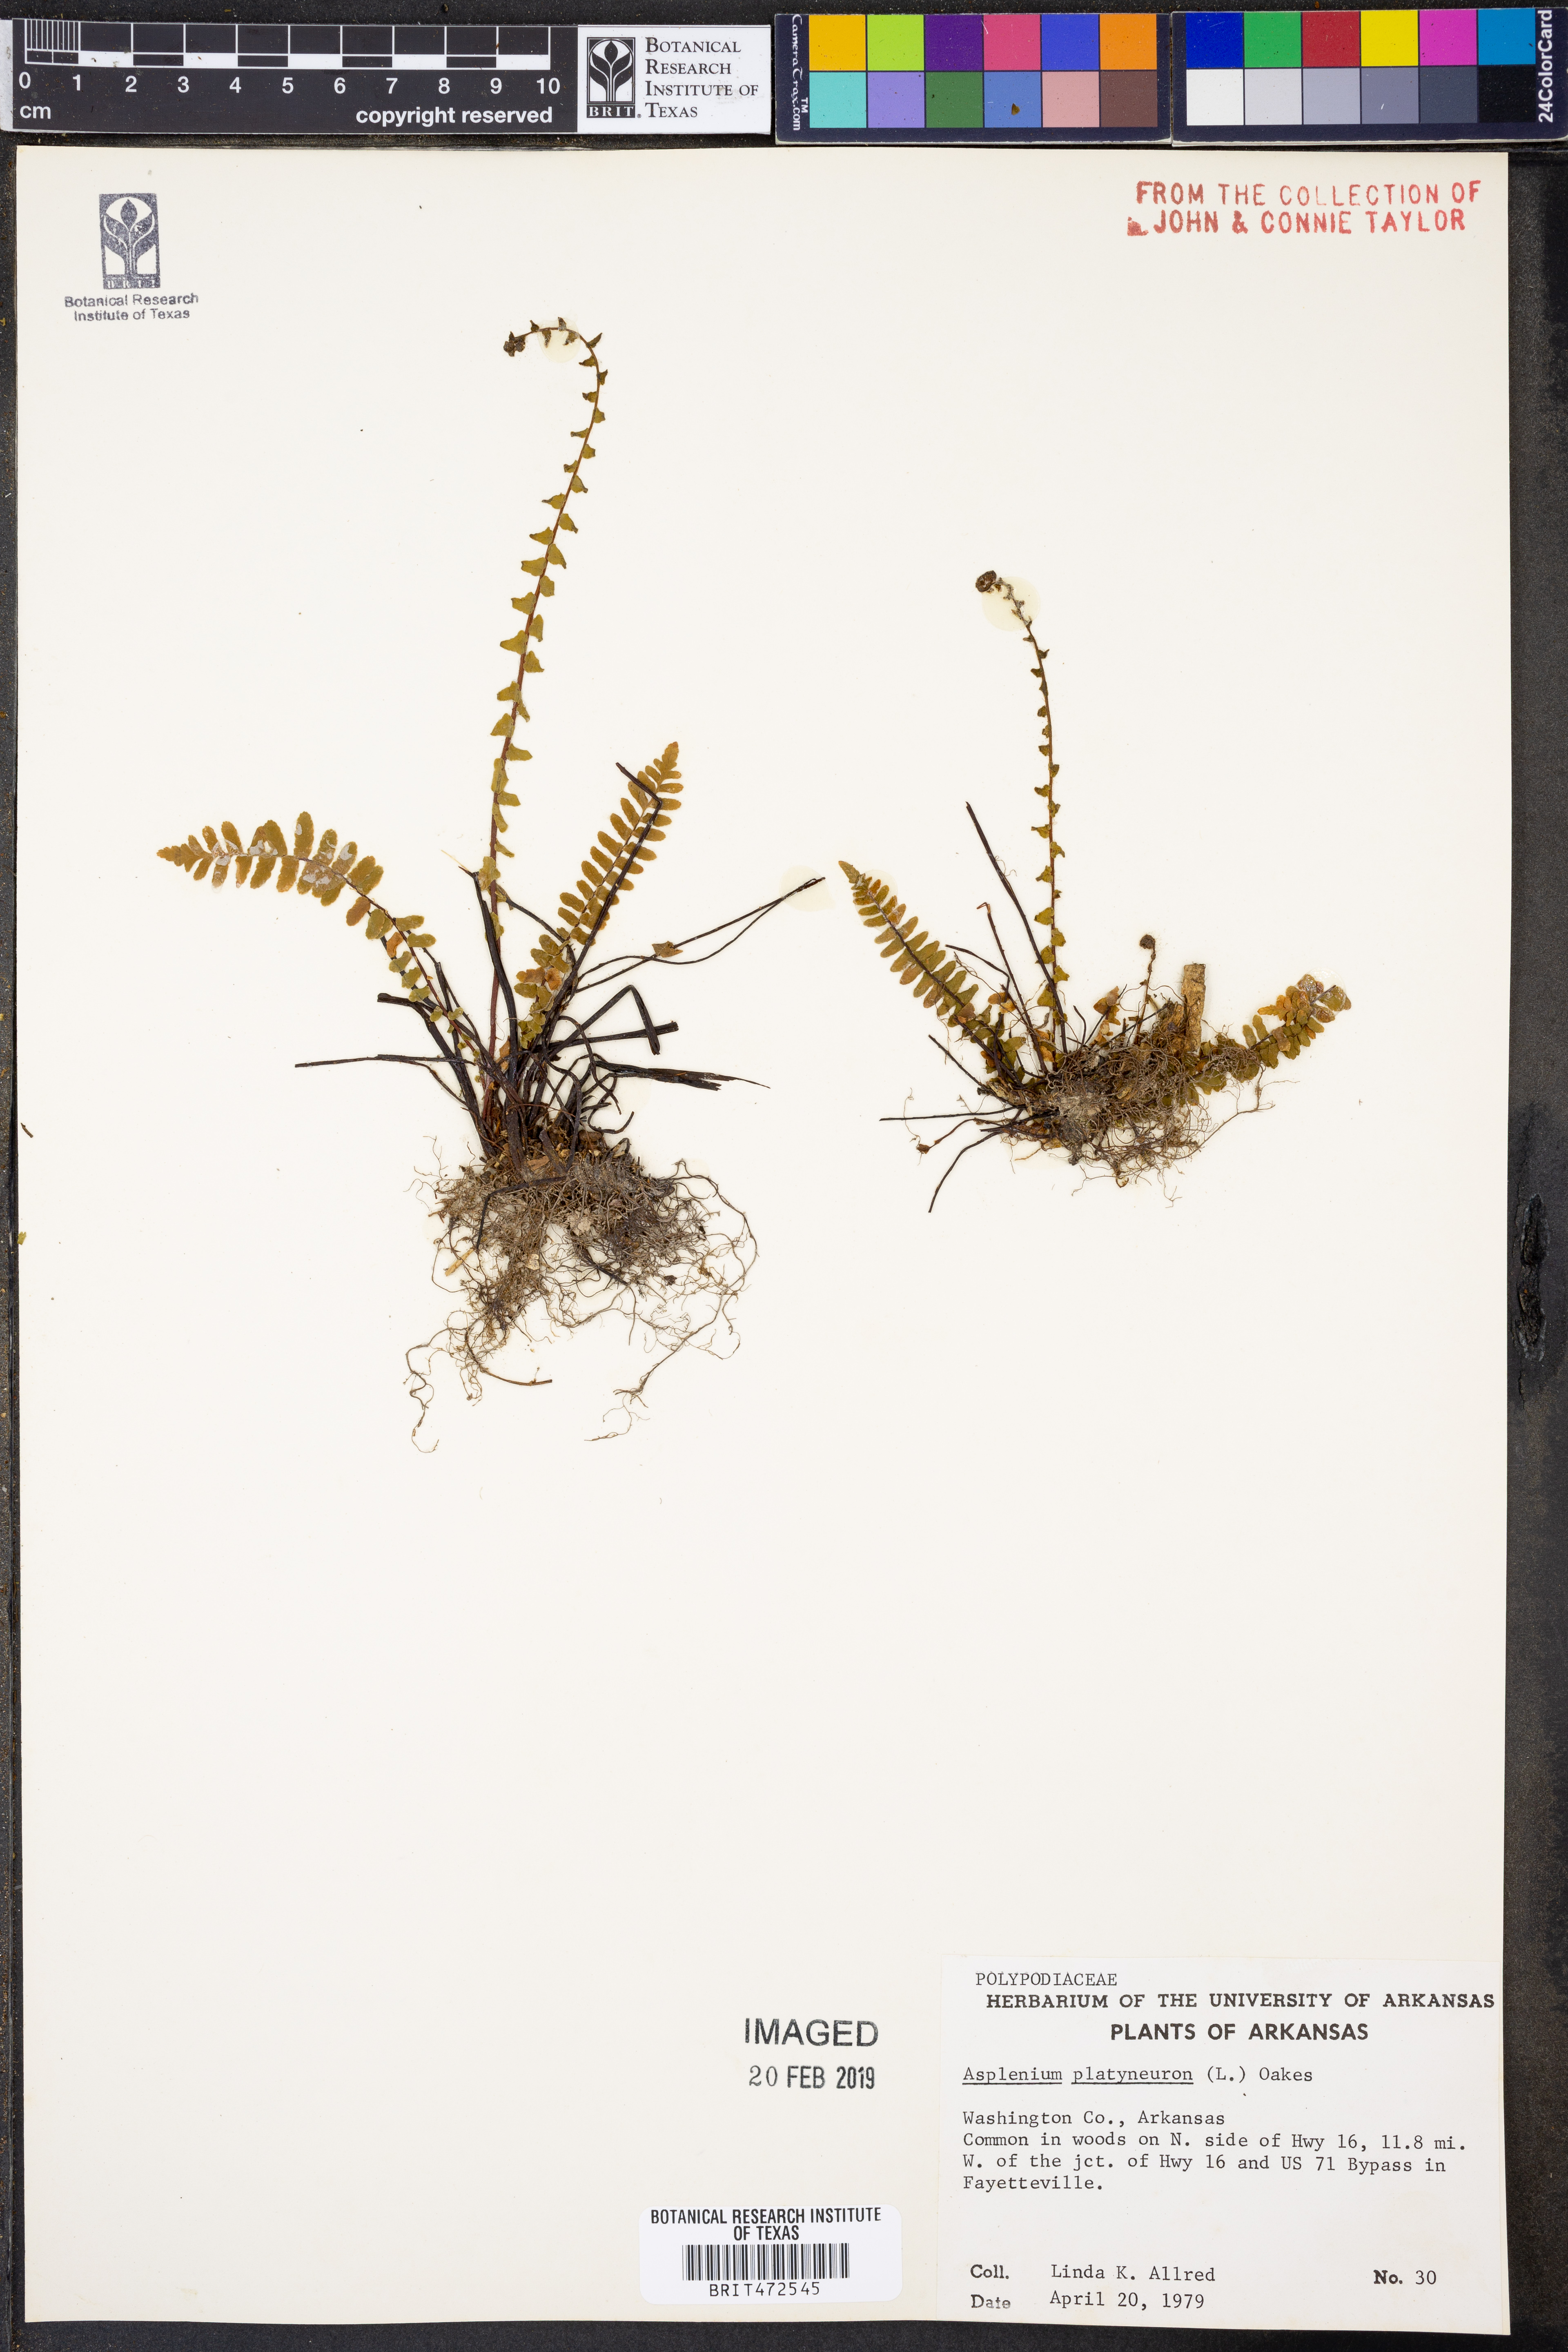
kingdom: Plantae
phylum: Tracheophyta
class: Polypodiopsida
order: Polypodiales
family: Aspleniaceae
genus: Asplenium
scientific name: Asplenium platyneuron
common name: Ebony spleenwort
